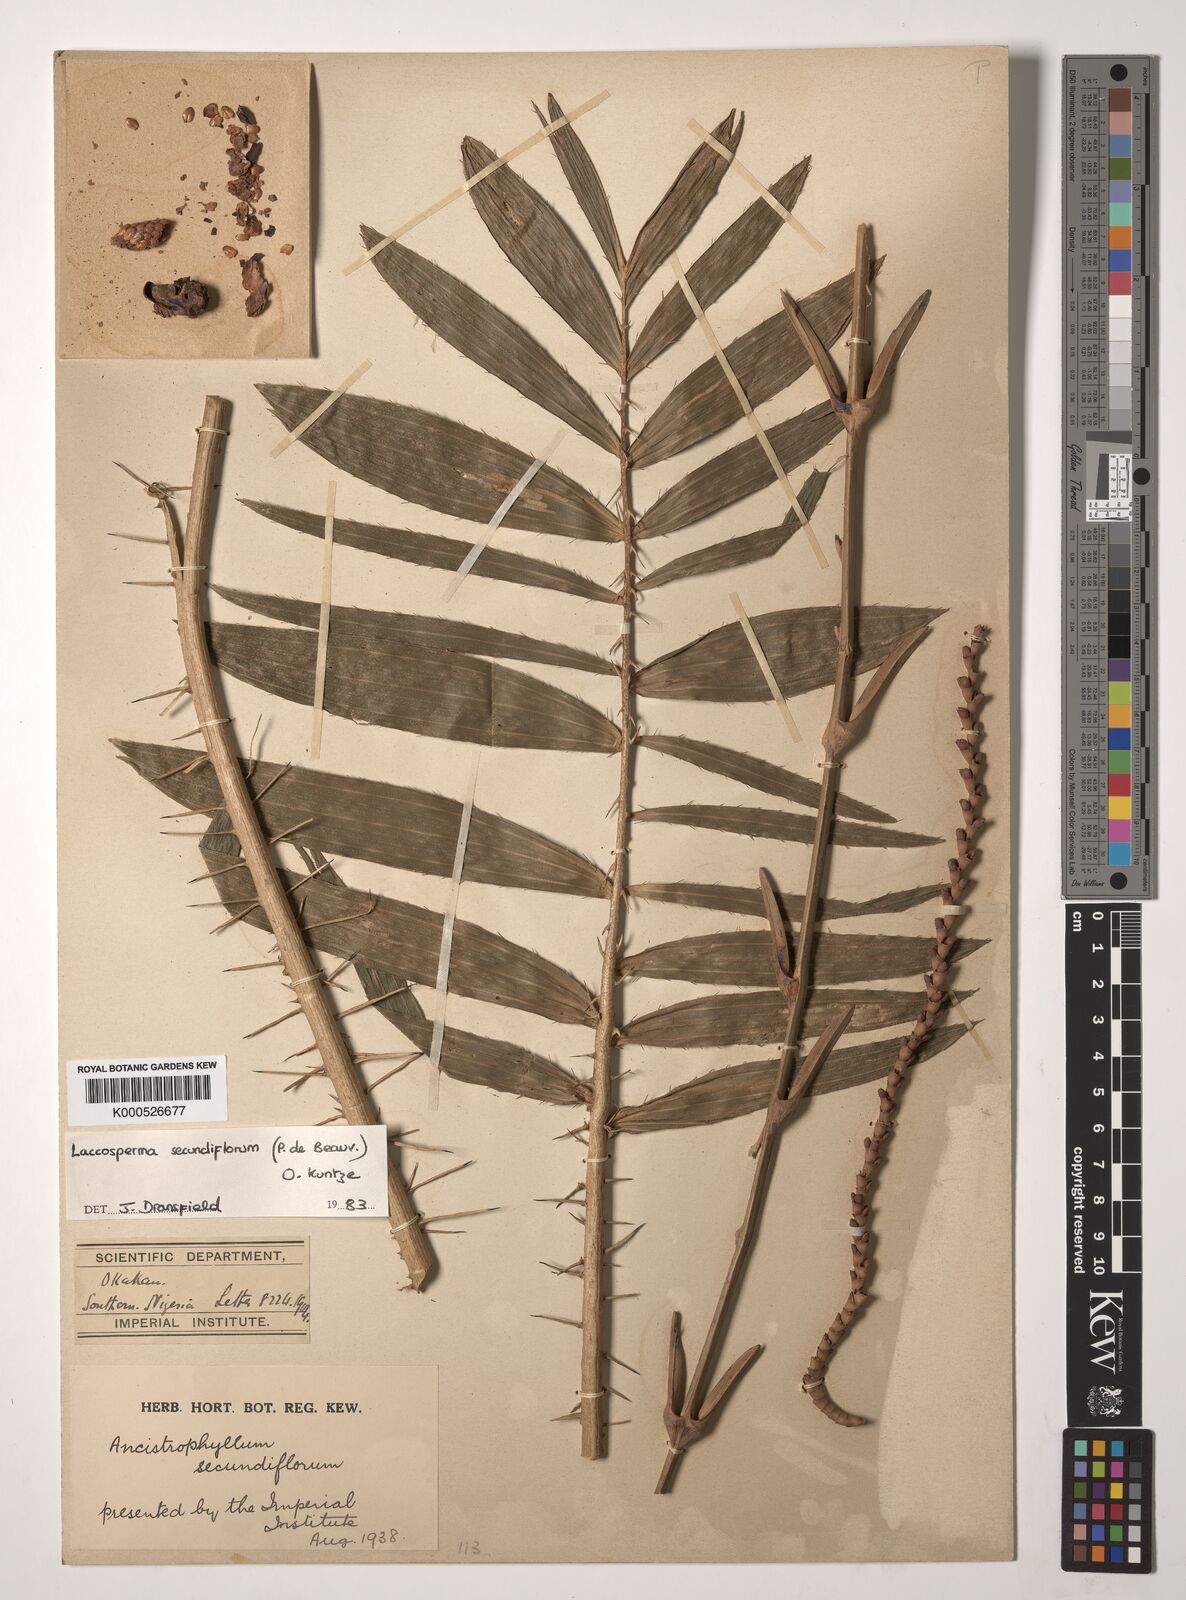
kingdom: Plantae
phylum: Tracheophyta
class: Liliopsida
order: Arecales
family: Arecaceae
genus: Laccosperma
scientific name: Laccosperma secundiflorum
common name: Rattan
